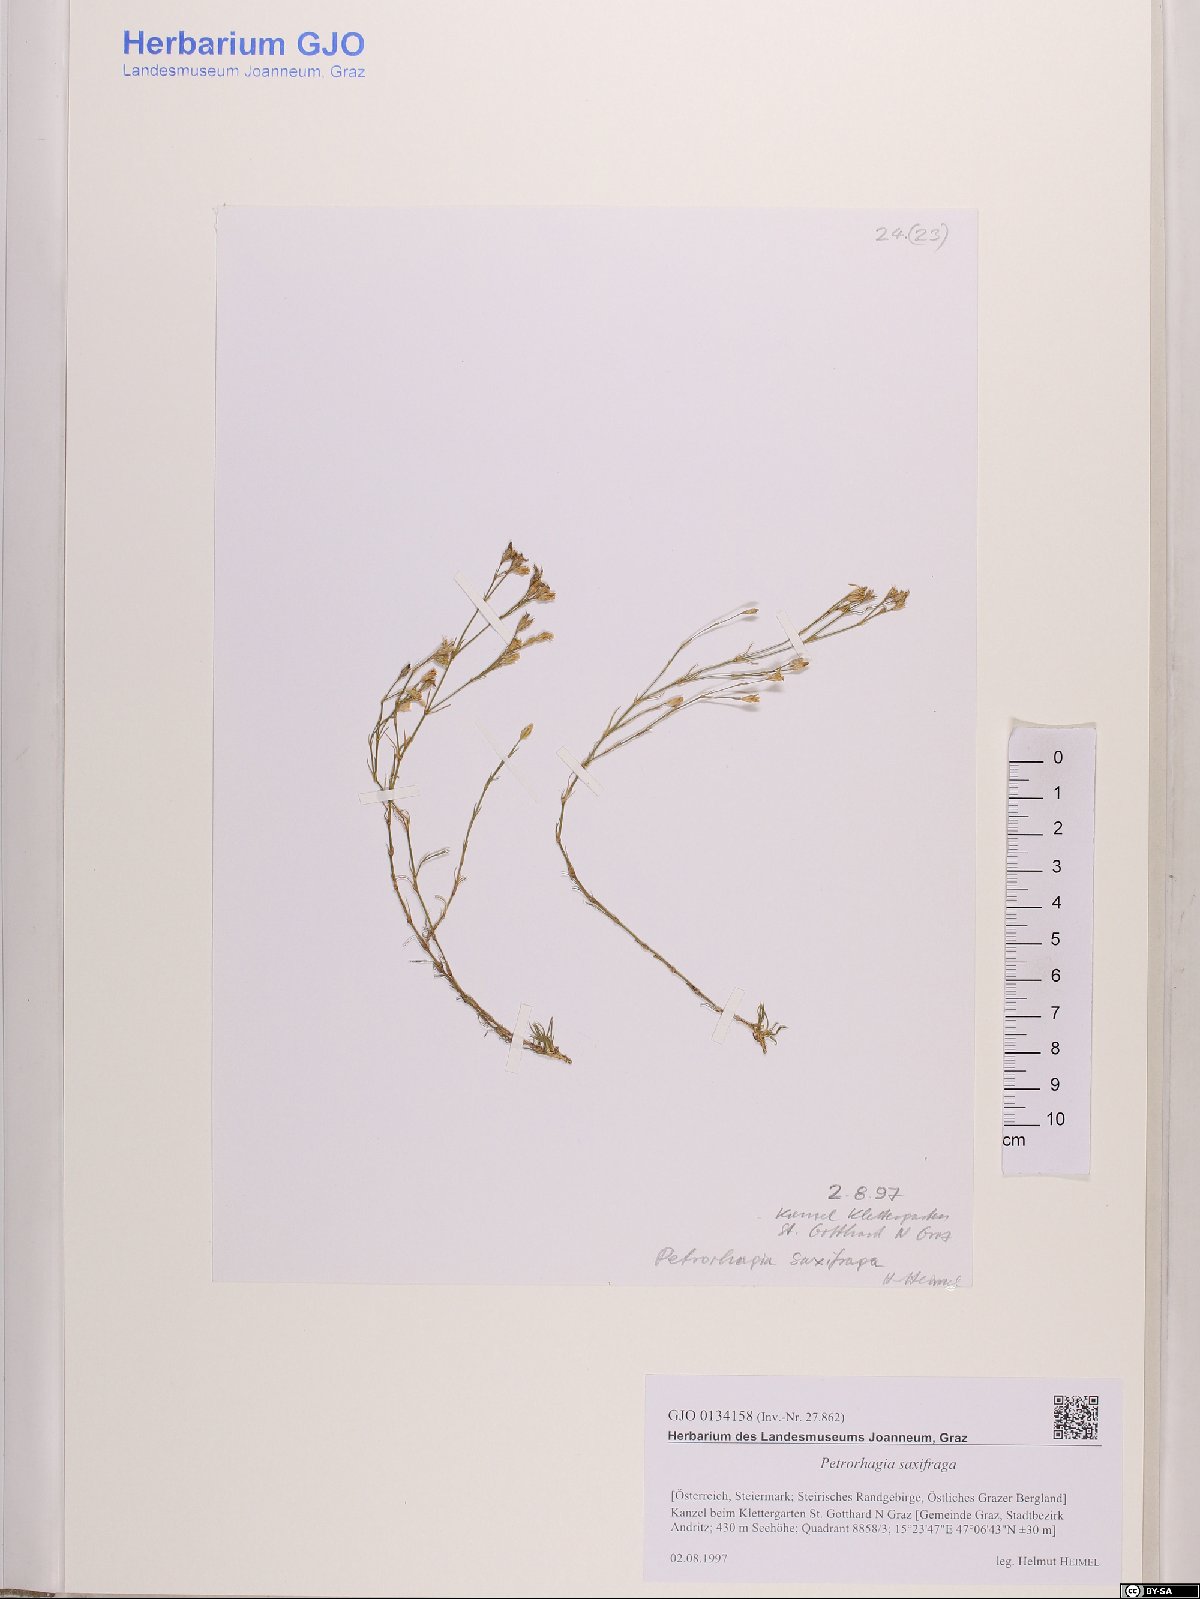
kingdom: Plantae
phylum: Tracheophyta
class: Magnoliopsida
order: Caryophyllales
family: Caryophyllaceae
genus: Petrorhagia
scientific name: Petrorhagia saxifraga
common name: Tunicflower
